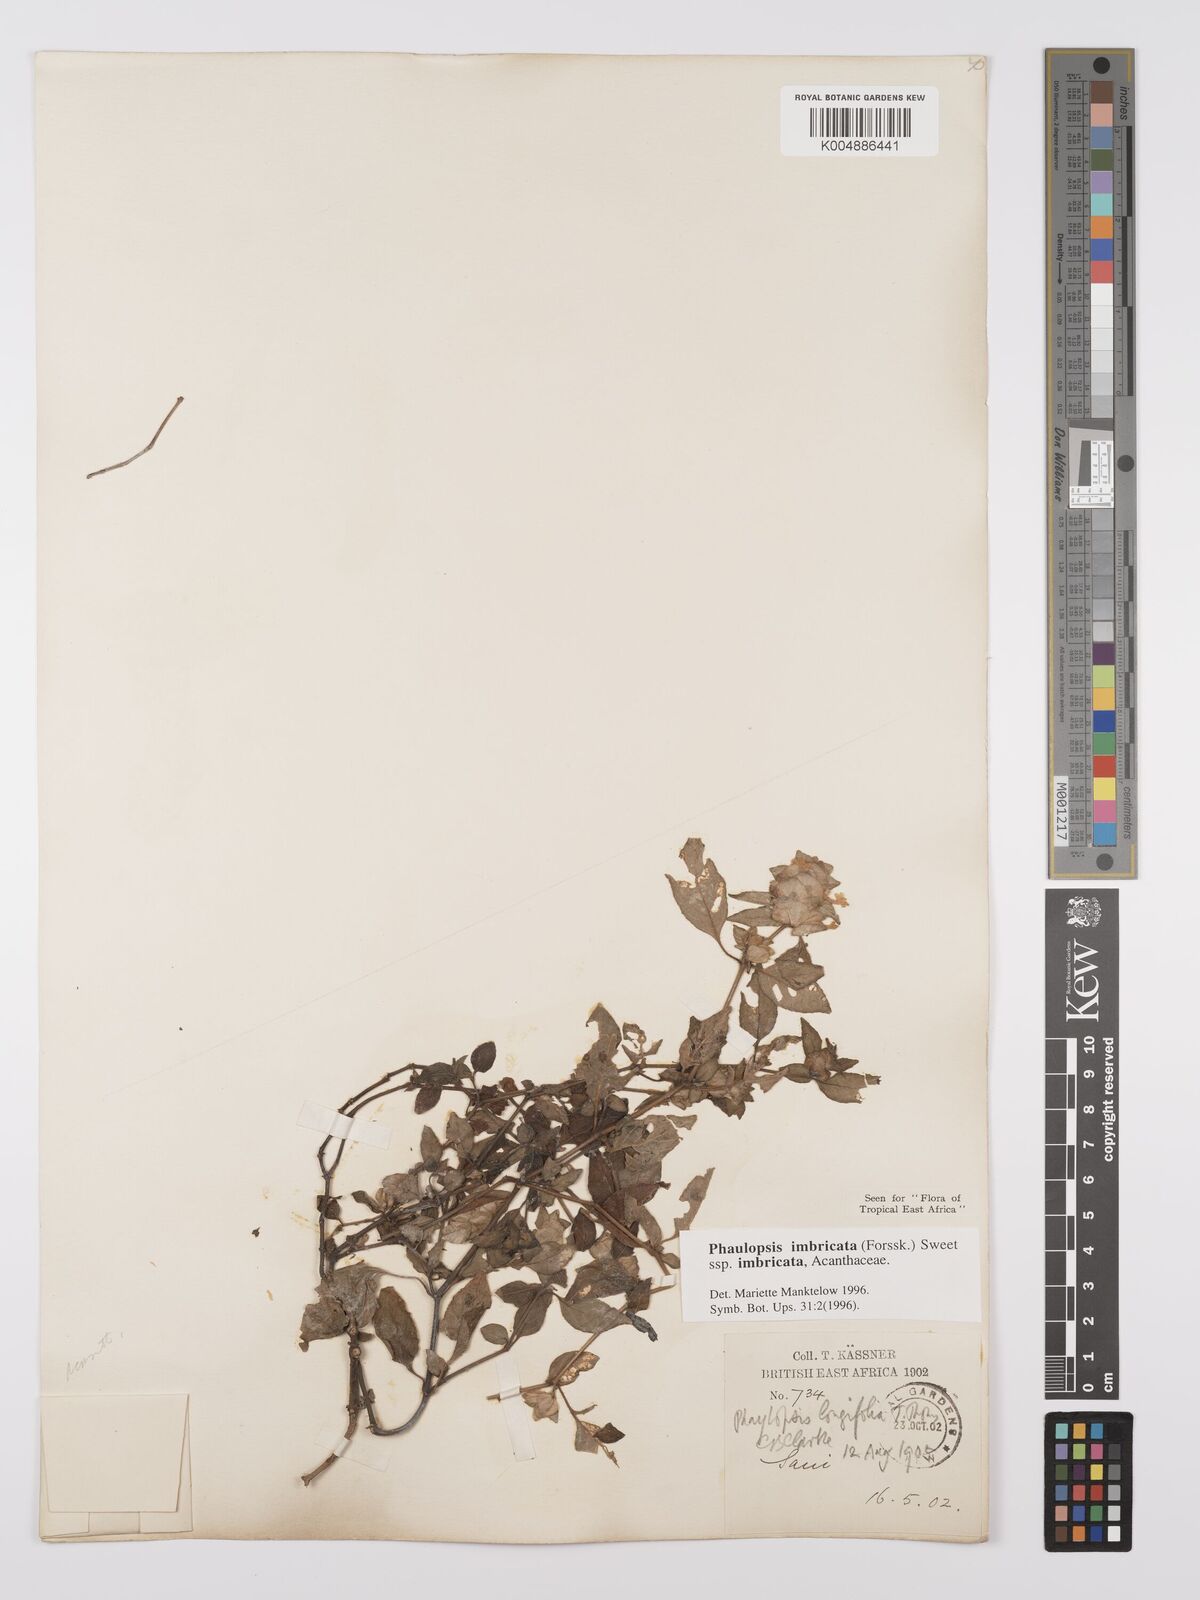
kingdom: Plantae
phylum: Tracheophyta
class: Magnoliopsida
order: Lamiales
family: Acanthaceae
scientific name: Acanthaceae
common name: Acanthaceae
